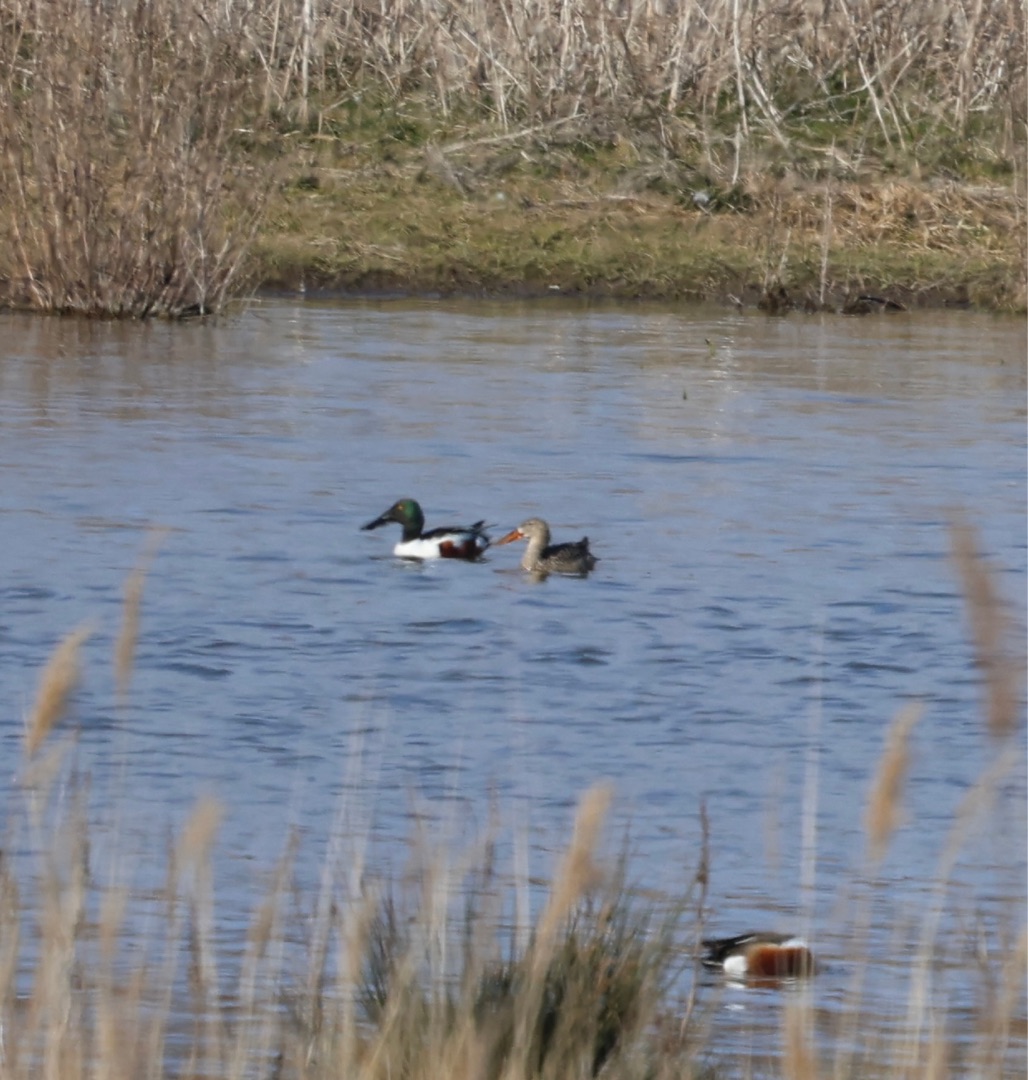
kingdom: Animalia
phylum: Chordata
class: Aves
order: Anseriformes
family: Anatidae
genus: Spatula
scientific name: Spatula clypeata
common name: Skeand
